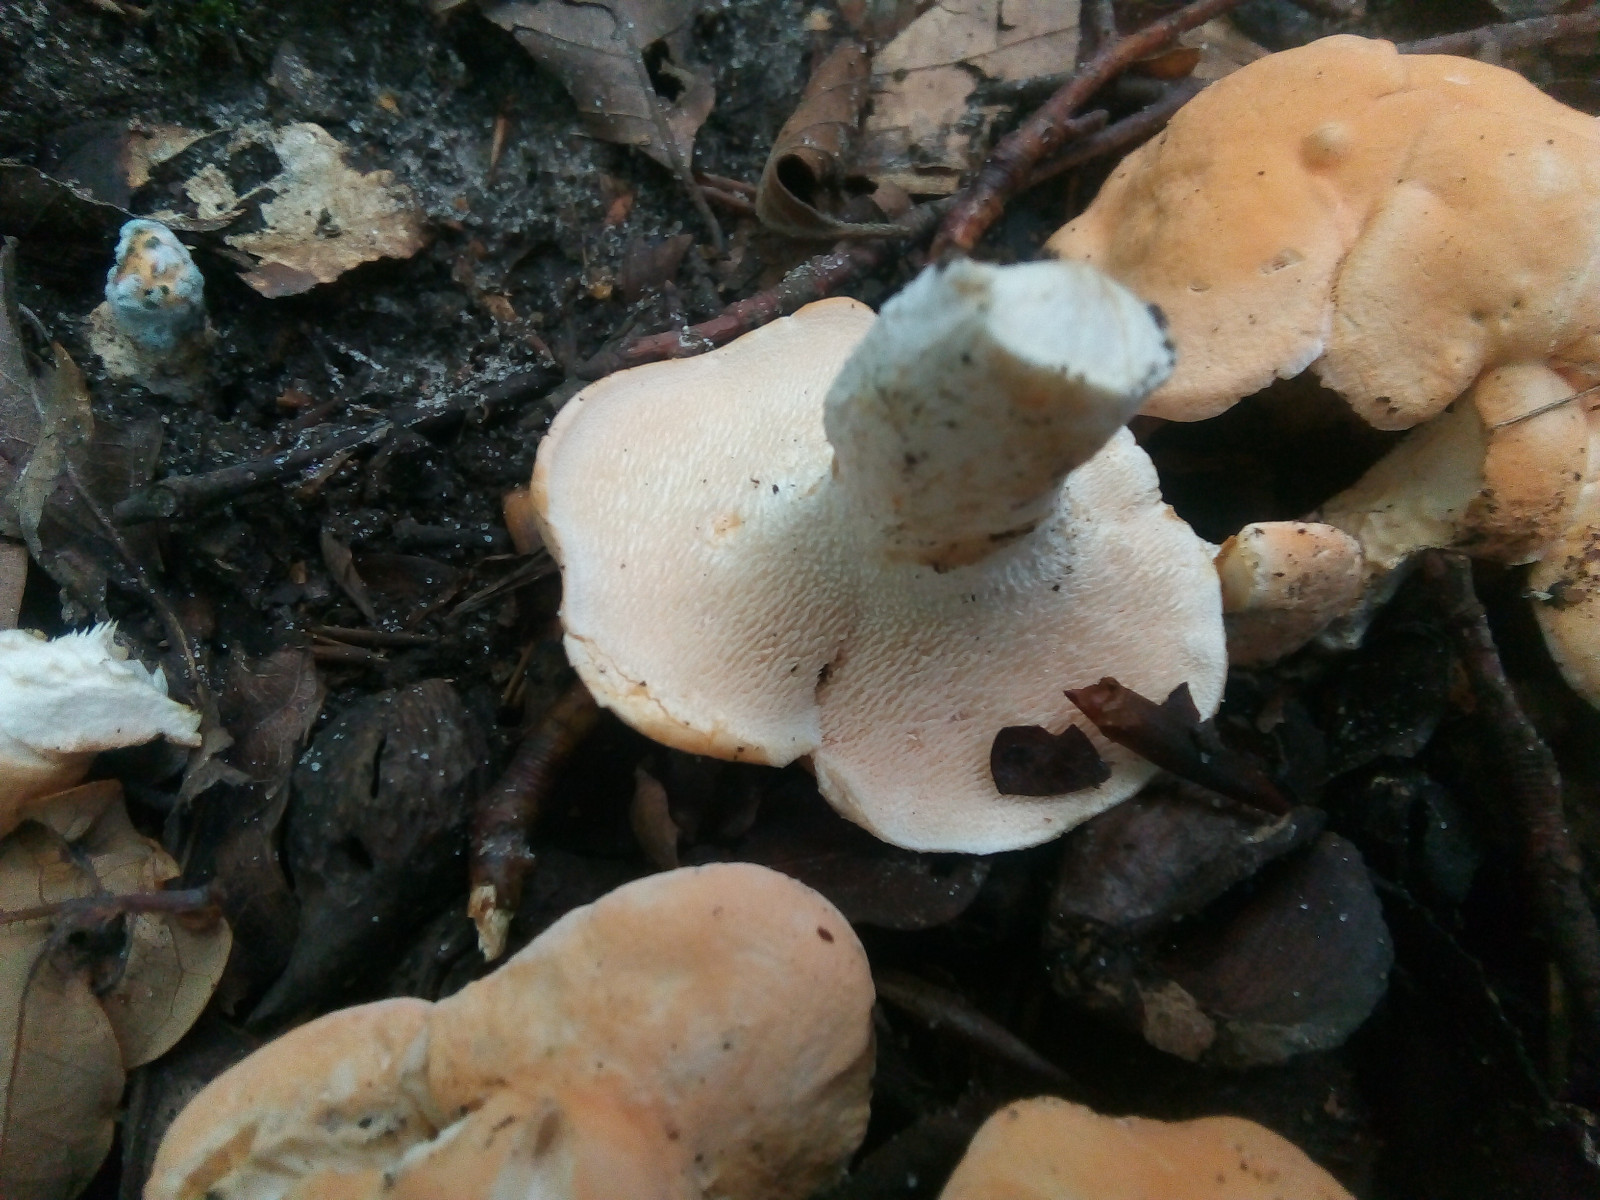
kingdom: Fungi
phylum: Basidiomycota
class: Agaricomycetes
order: Cantharellales
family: Hydnaceae
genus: Hydnum
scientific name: Hydnum
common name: pigsvamp
